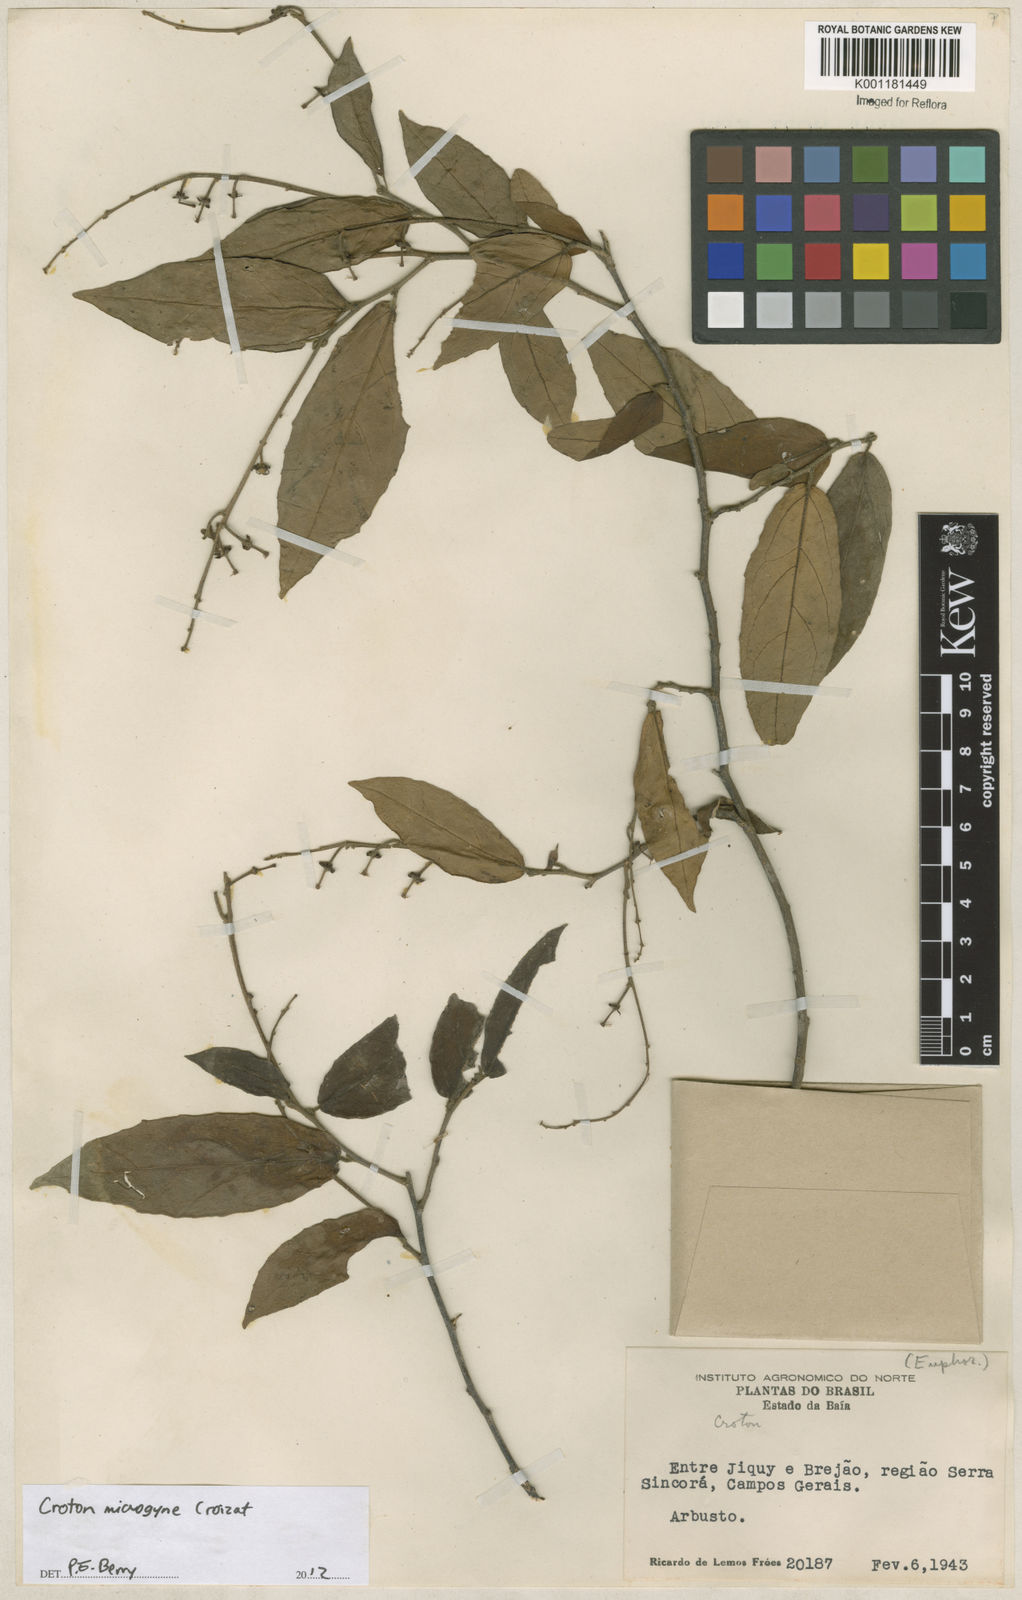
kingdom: Plantae
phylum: Tracheophyta
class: Magnoliopsida
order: Malpighiales
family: Euphorbiaceae
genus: Croton
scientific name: Croton microgyne
